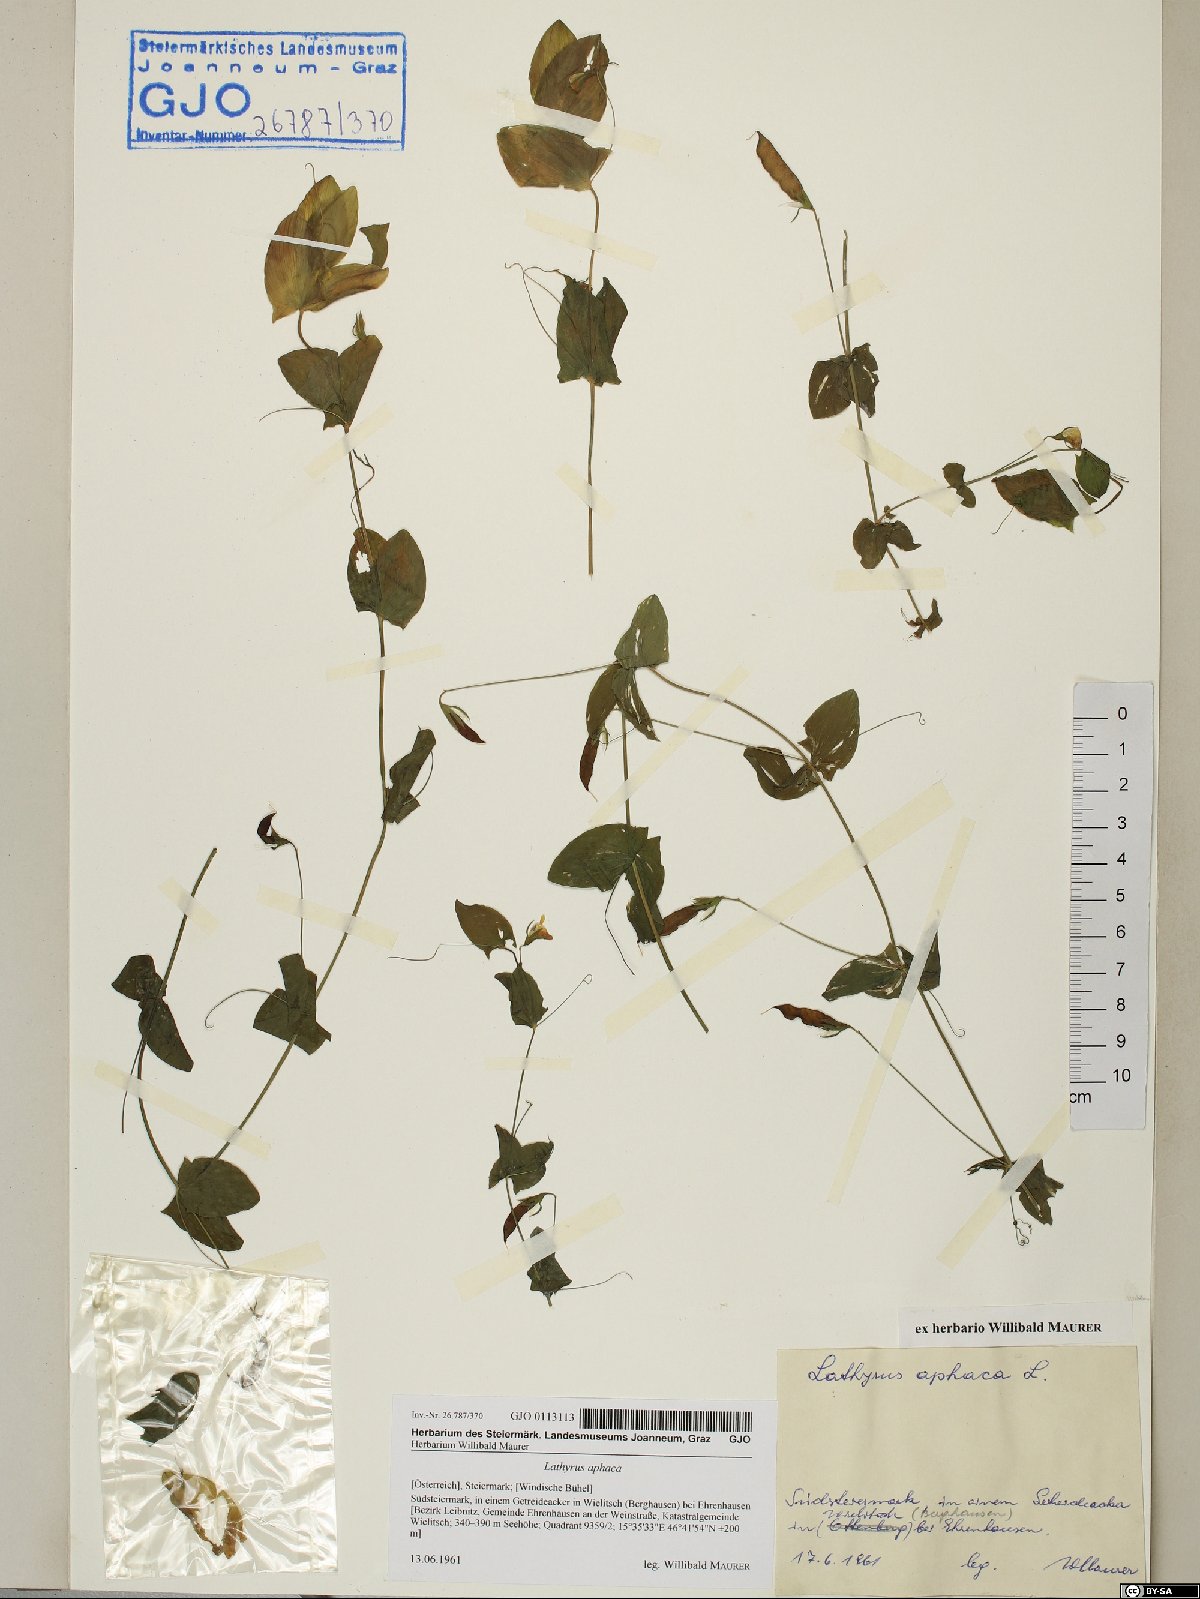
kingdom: Plantae
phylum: Tracheophyta
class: Magnoliopsida
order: Fabales
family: Fabaceae
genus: Lathyrus
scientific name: Lathyrus aphaca
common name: Yellow vetchling
